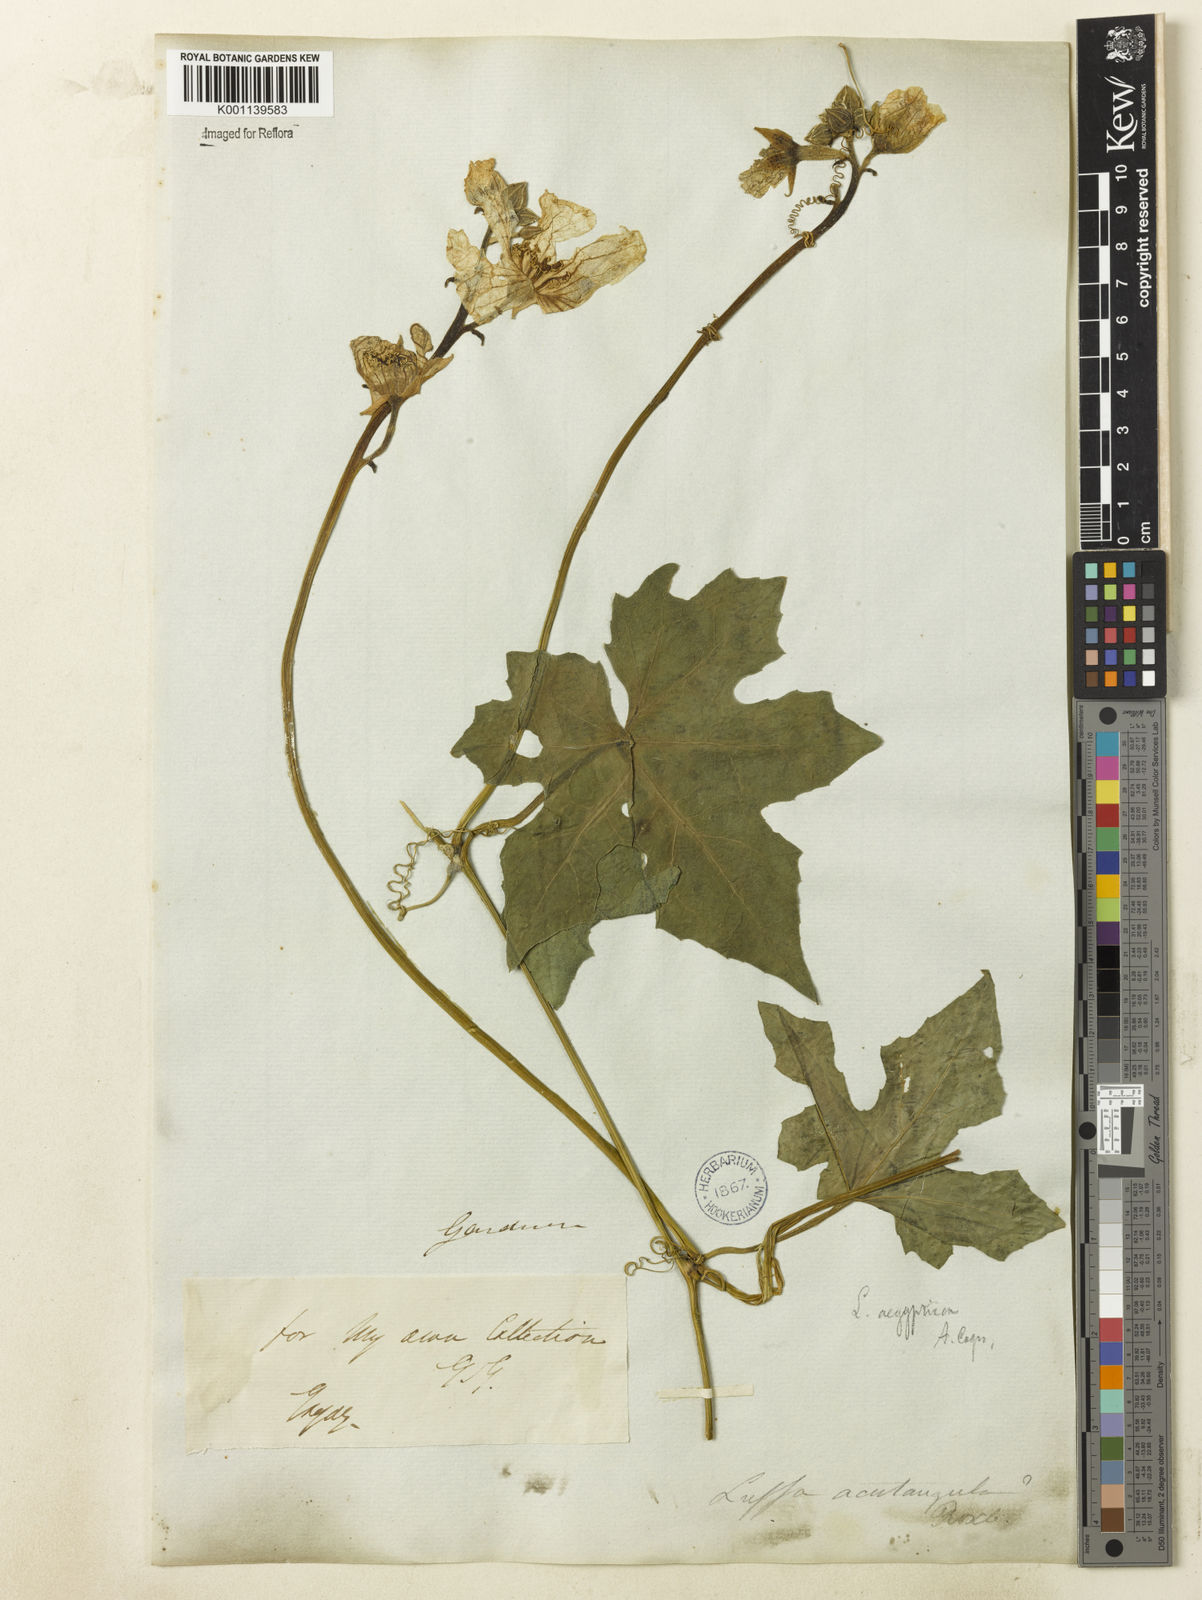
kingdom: Plantae
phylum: Tracheophyta
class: Magnoliopsida
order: Cucurbitales
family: Cucurbitaceae
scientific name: Cucurbitaceae
